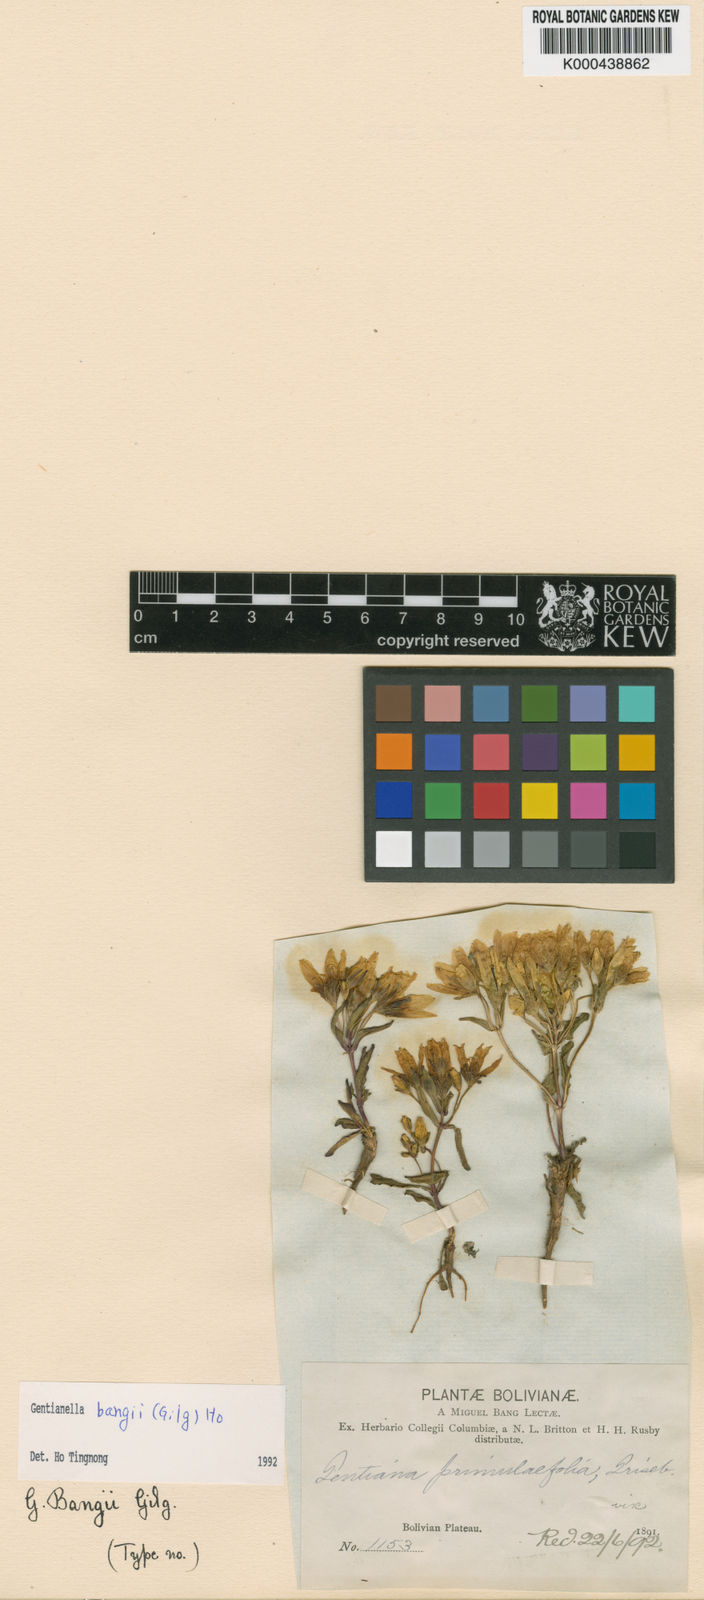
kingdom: Plantae
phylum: Tracheophyta
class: Magnoliopsida
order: Gentianales
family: Gentianaceae
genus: Gentianella
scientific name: Gentianella bangii
